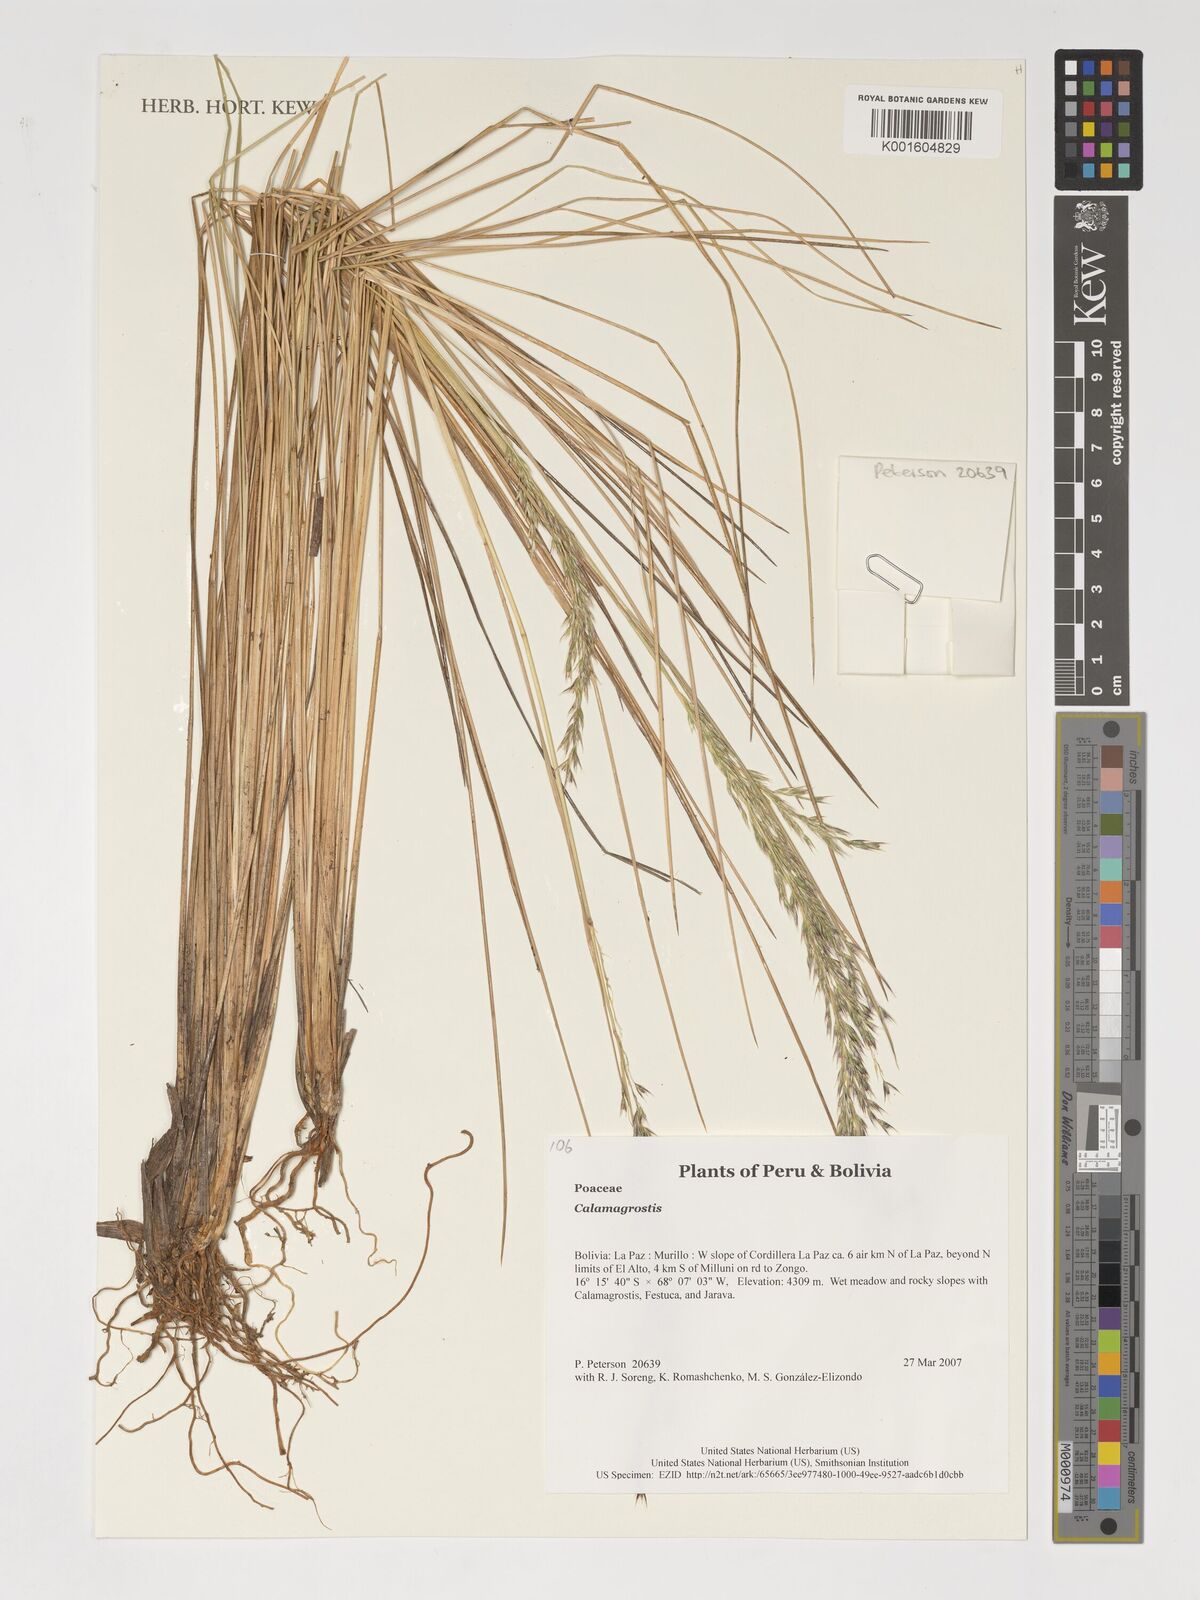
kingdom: Plantae
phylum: Tracheophyta
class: Liliopsida
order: Poales
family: Poaceae
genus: Calamagrostis
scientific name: Calamagrostis
